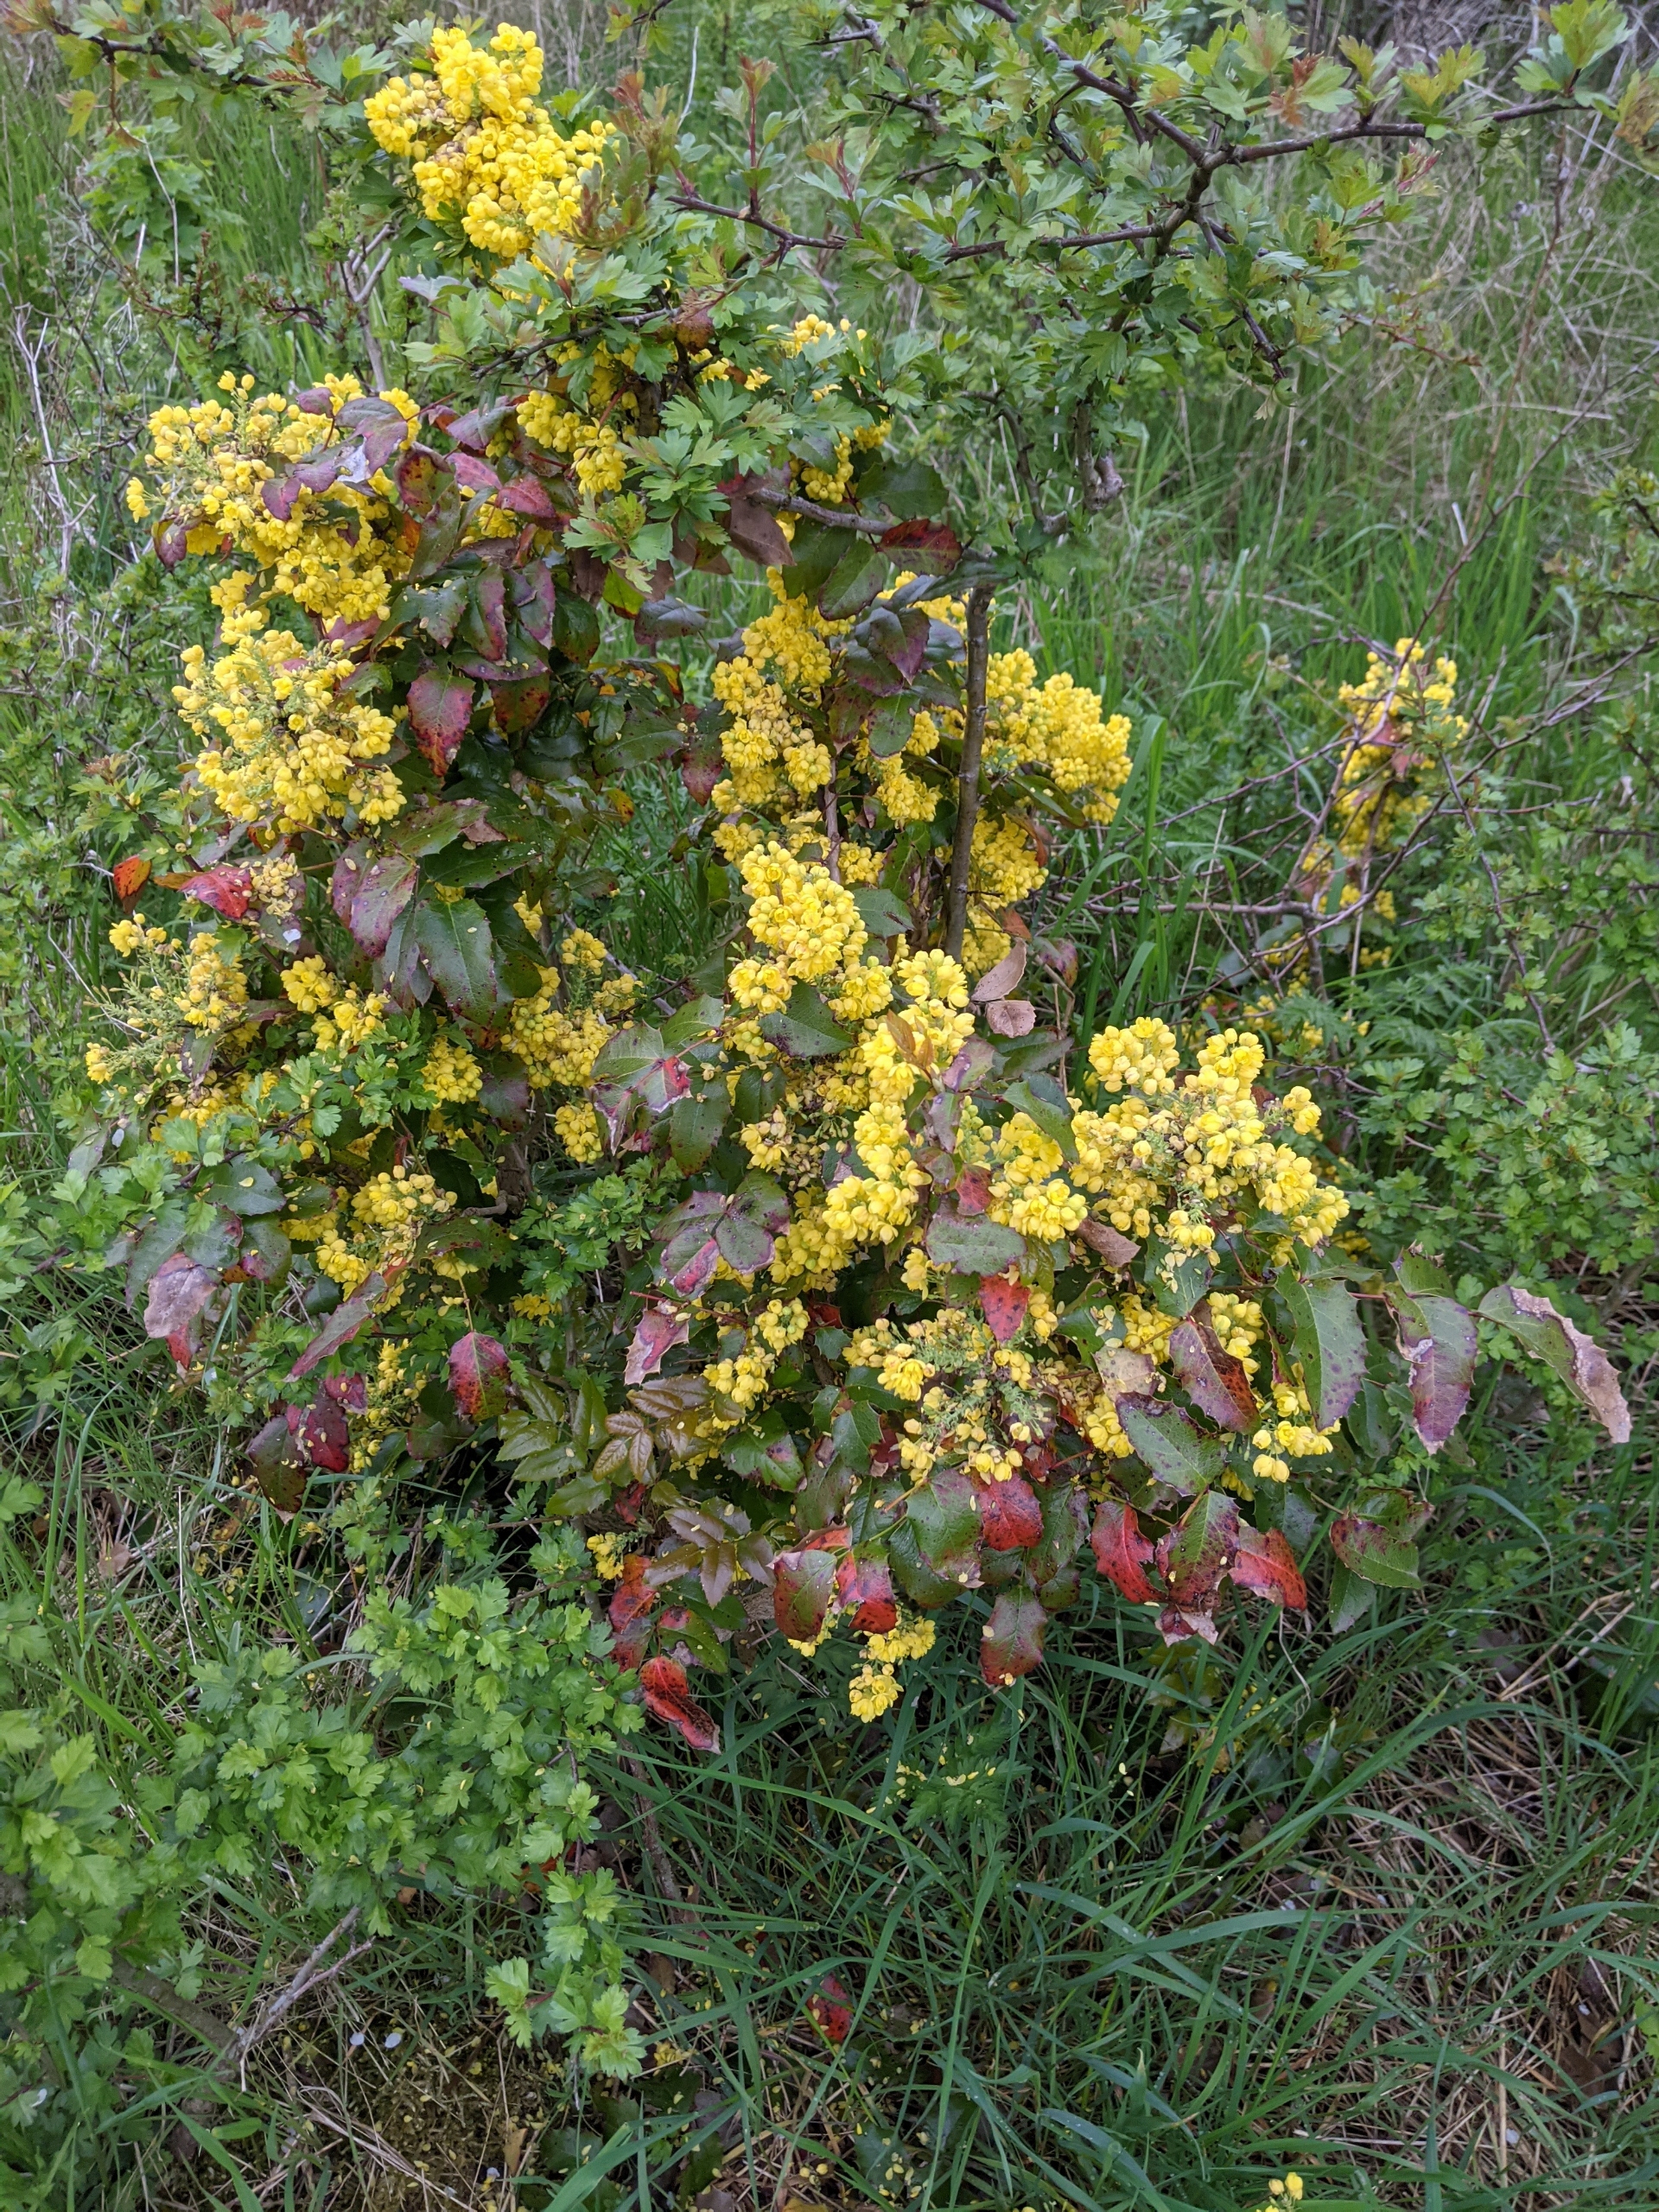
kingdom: Plantae
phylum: Tracheophyta
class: Magnoliopsida
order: Ranunculales
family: Berberidaceae
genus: Mahonia
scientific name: Mahonia aquifolium
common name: Almindelig mahonie
